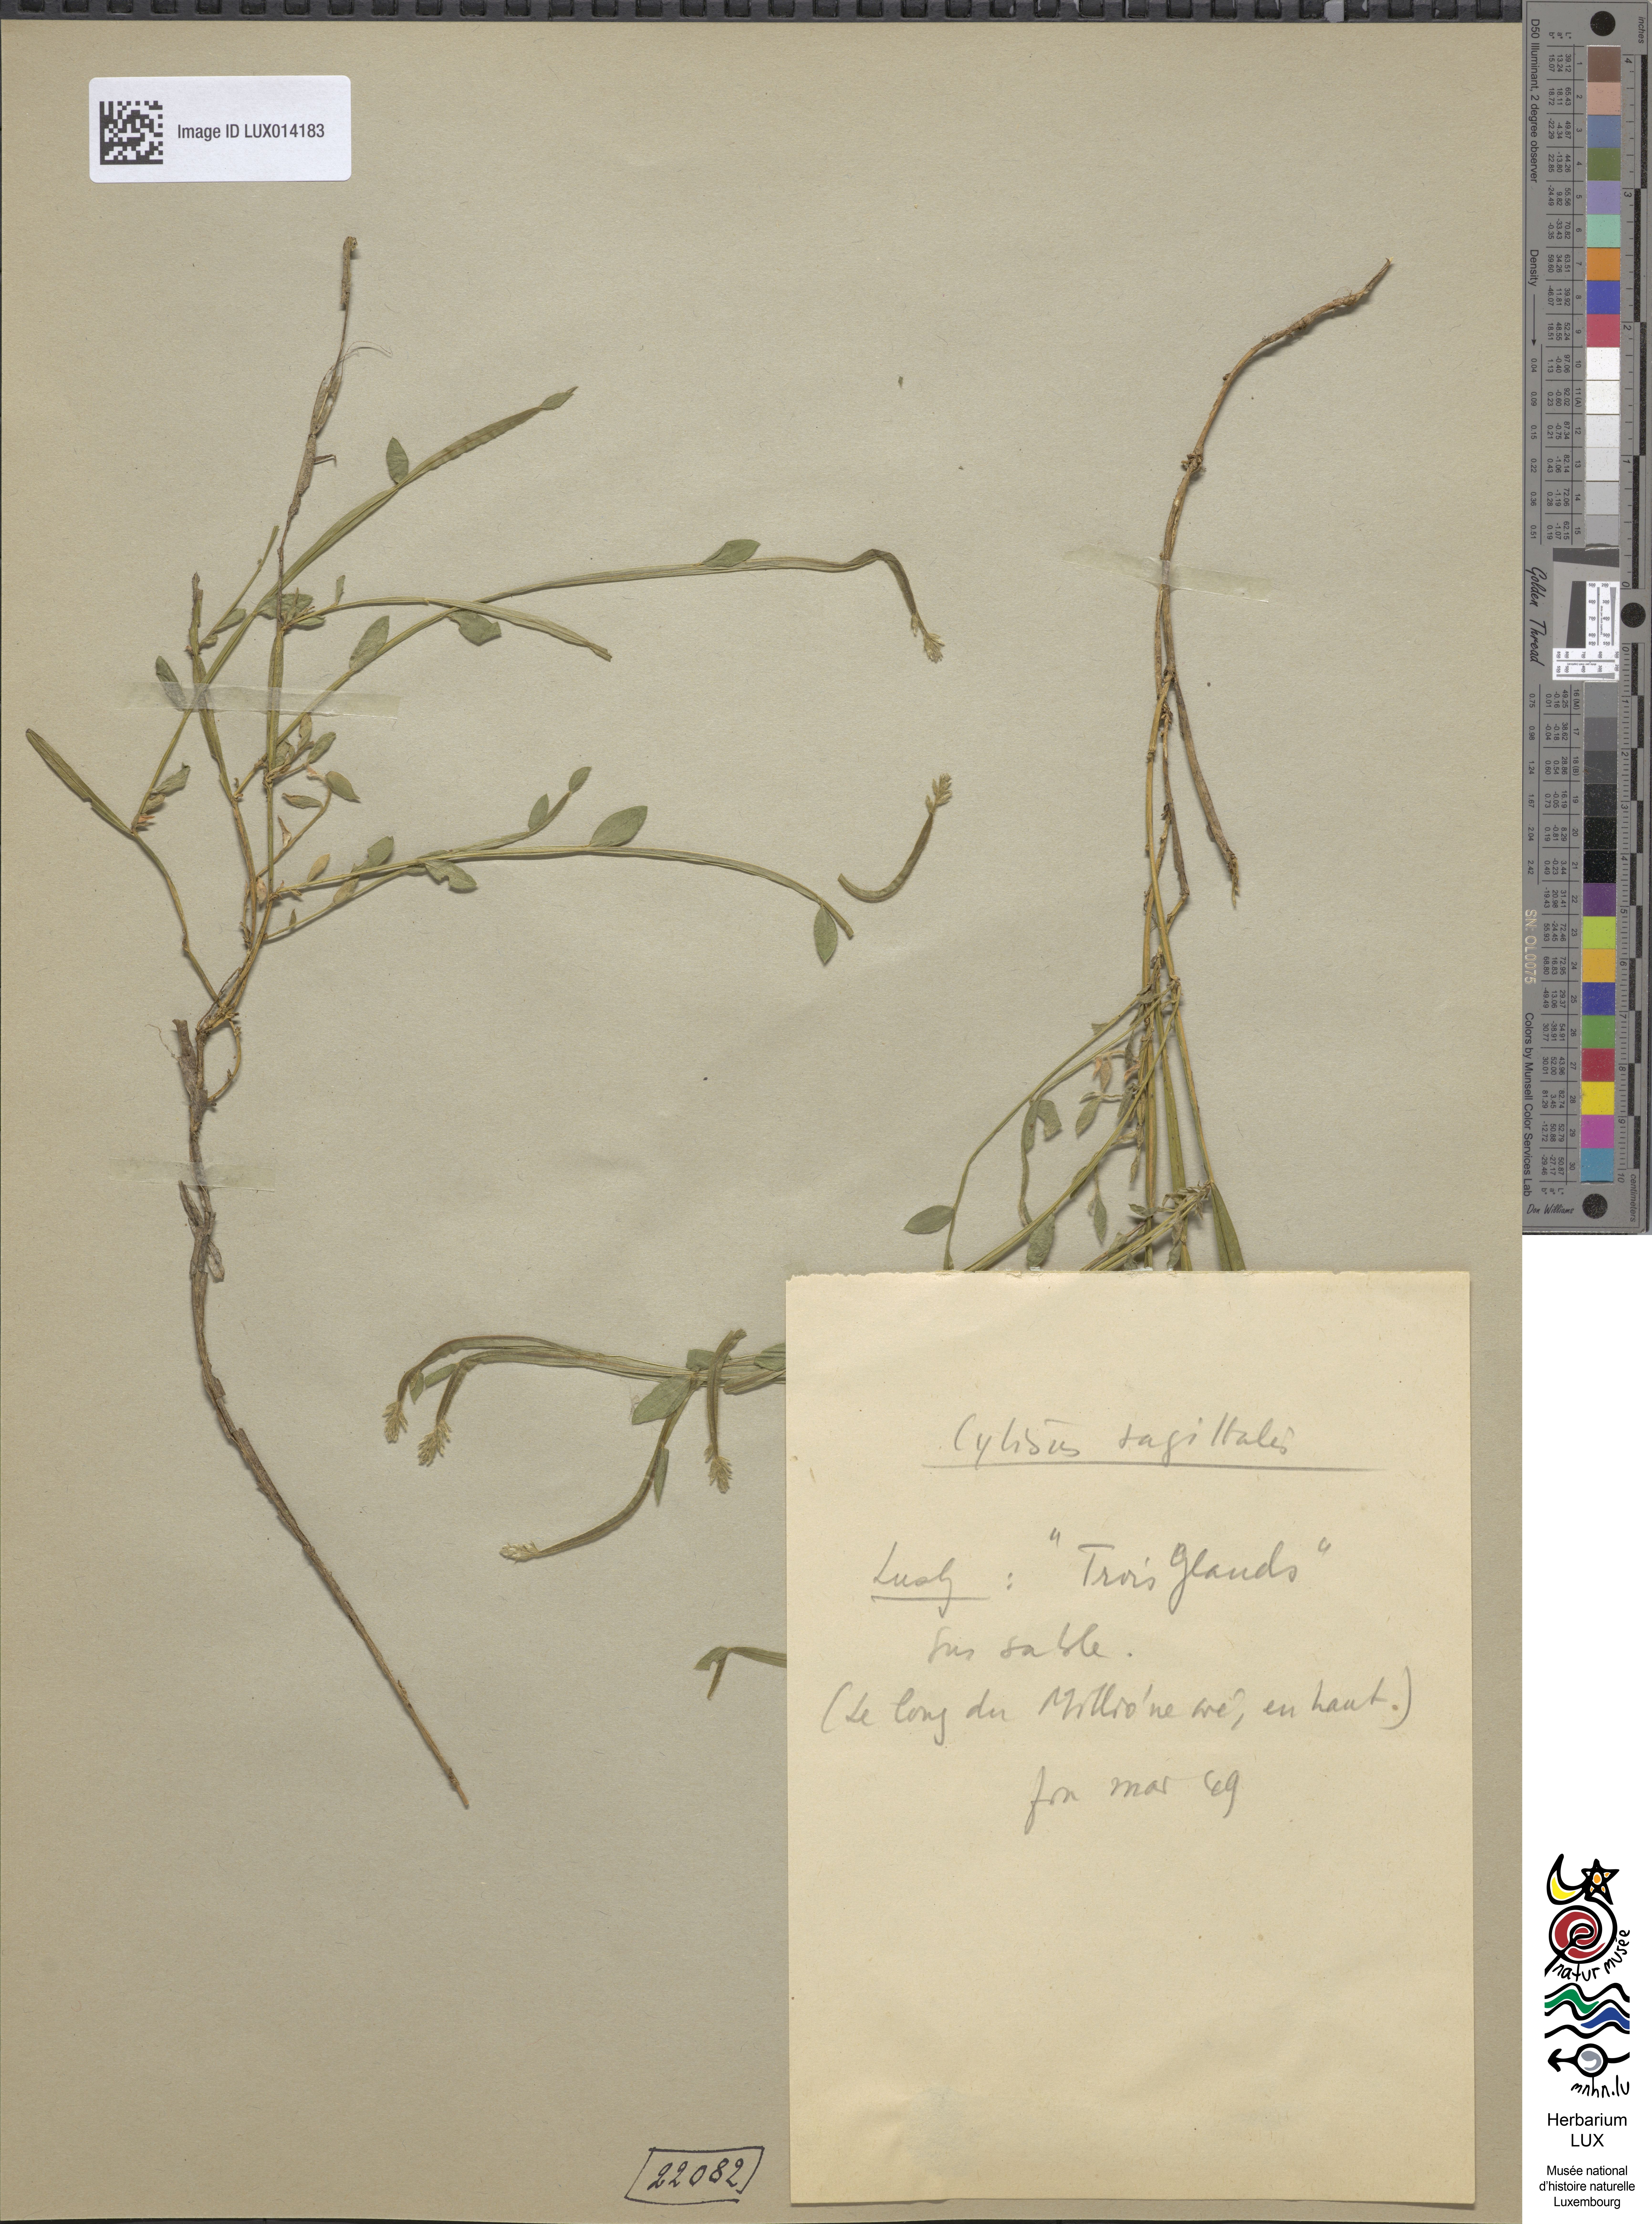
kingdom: Plantae
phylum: Tracheophyta
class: Magnoliopsida
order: Fabales
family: Fabaceae
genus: Genista
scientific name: Genista sagittalis
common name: Winged greenweed
